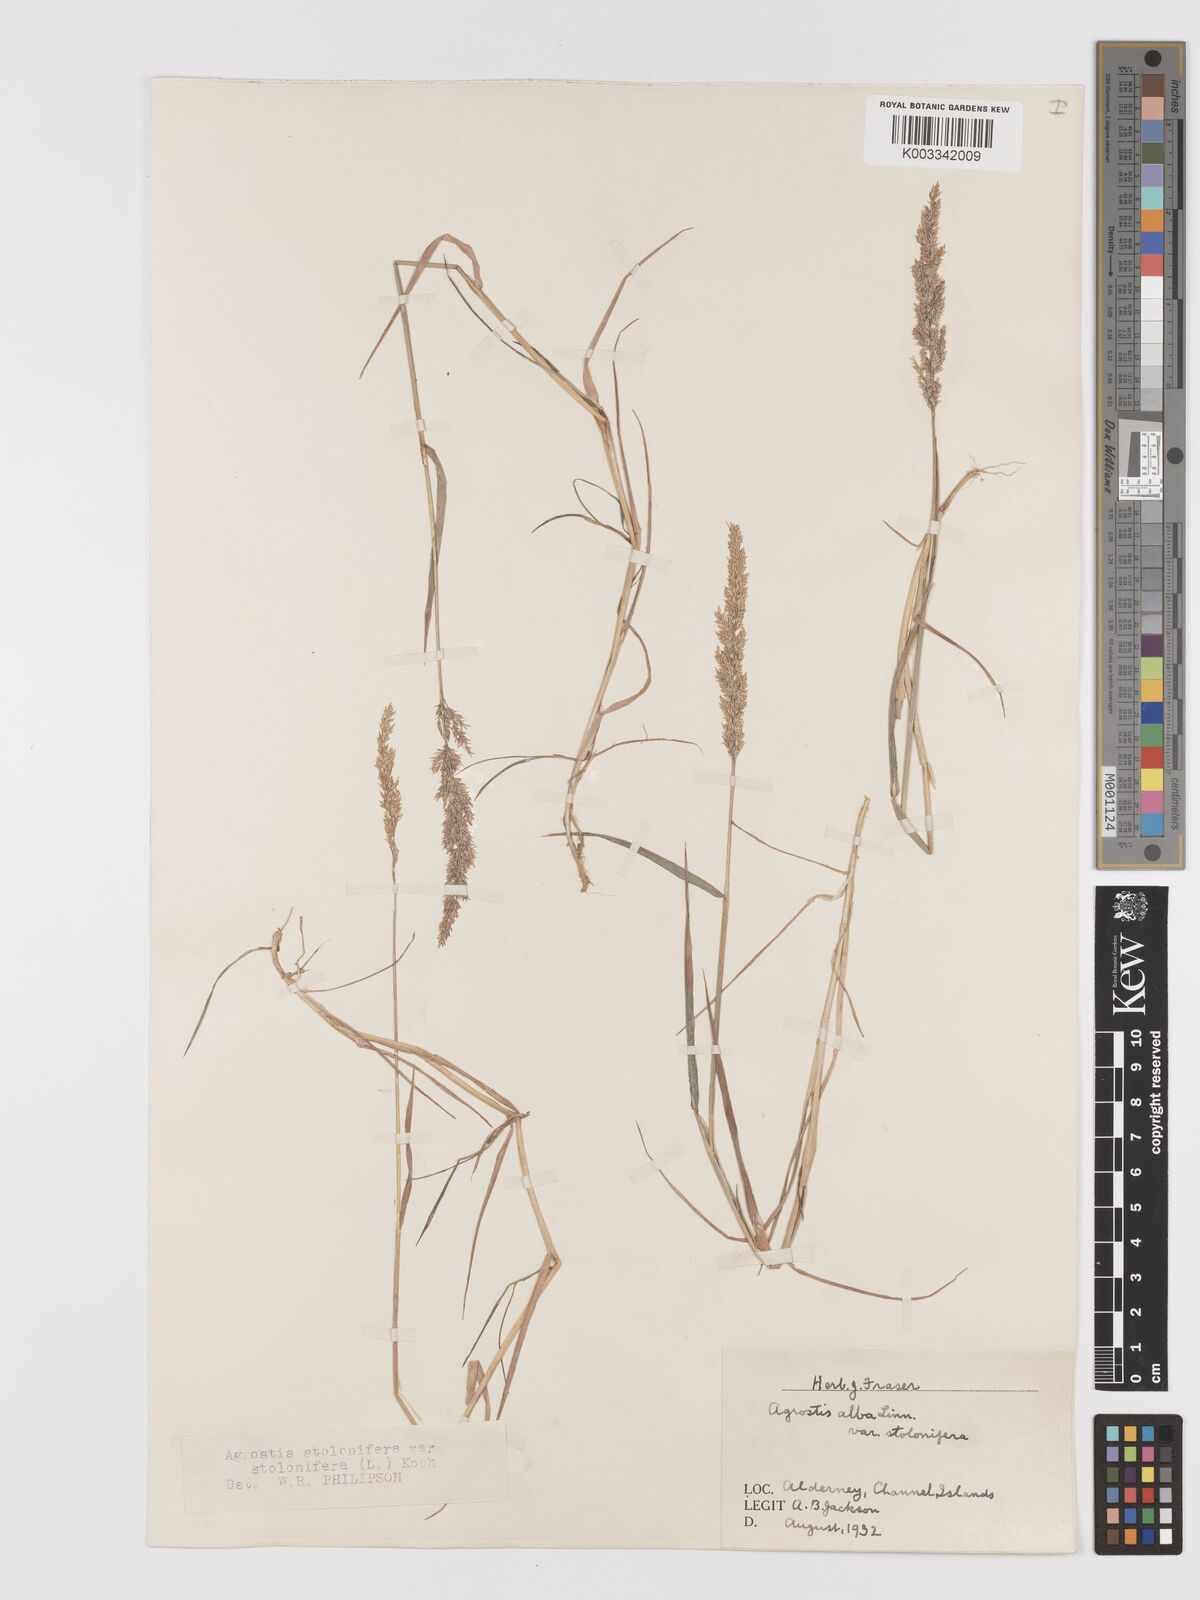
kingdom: Plantae
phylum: Tracheophyta
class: Liliopsida
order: Poales
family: Poaceae
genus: Agrostis
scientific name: Agrostis stolonifera
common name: Creeping bentgrass
